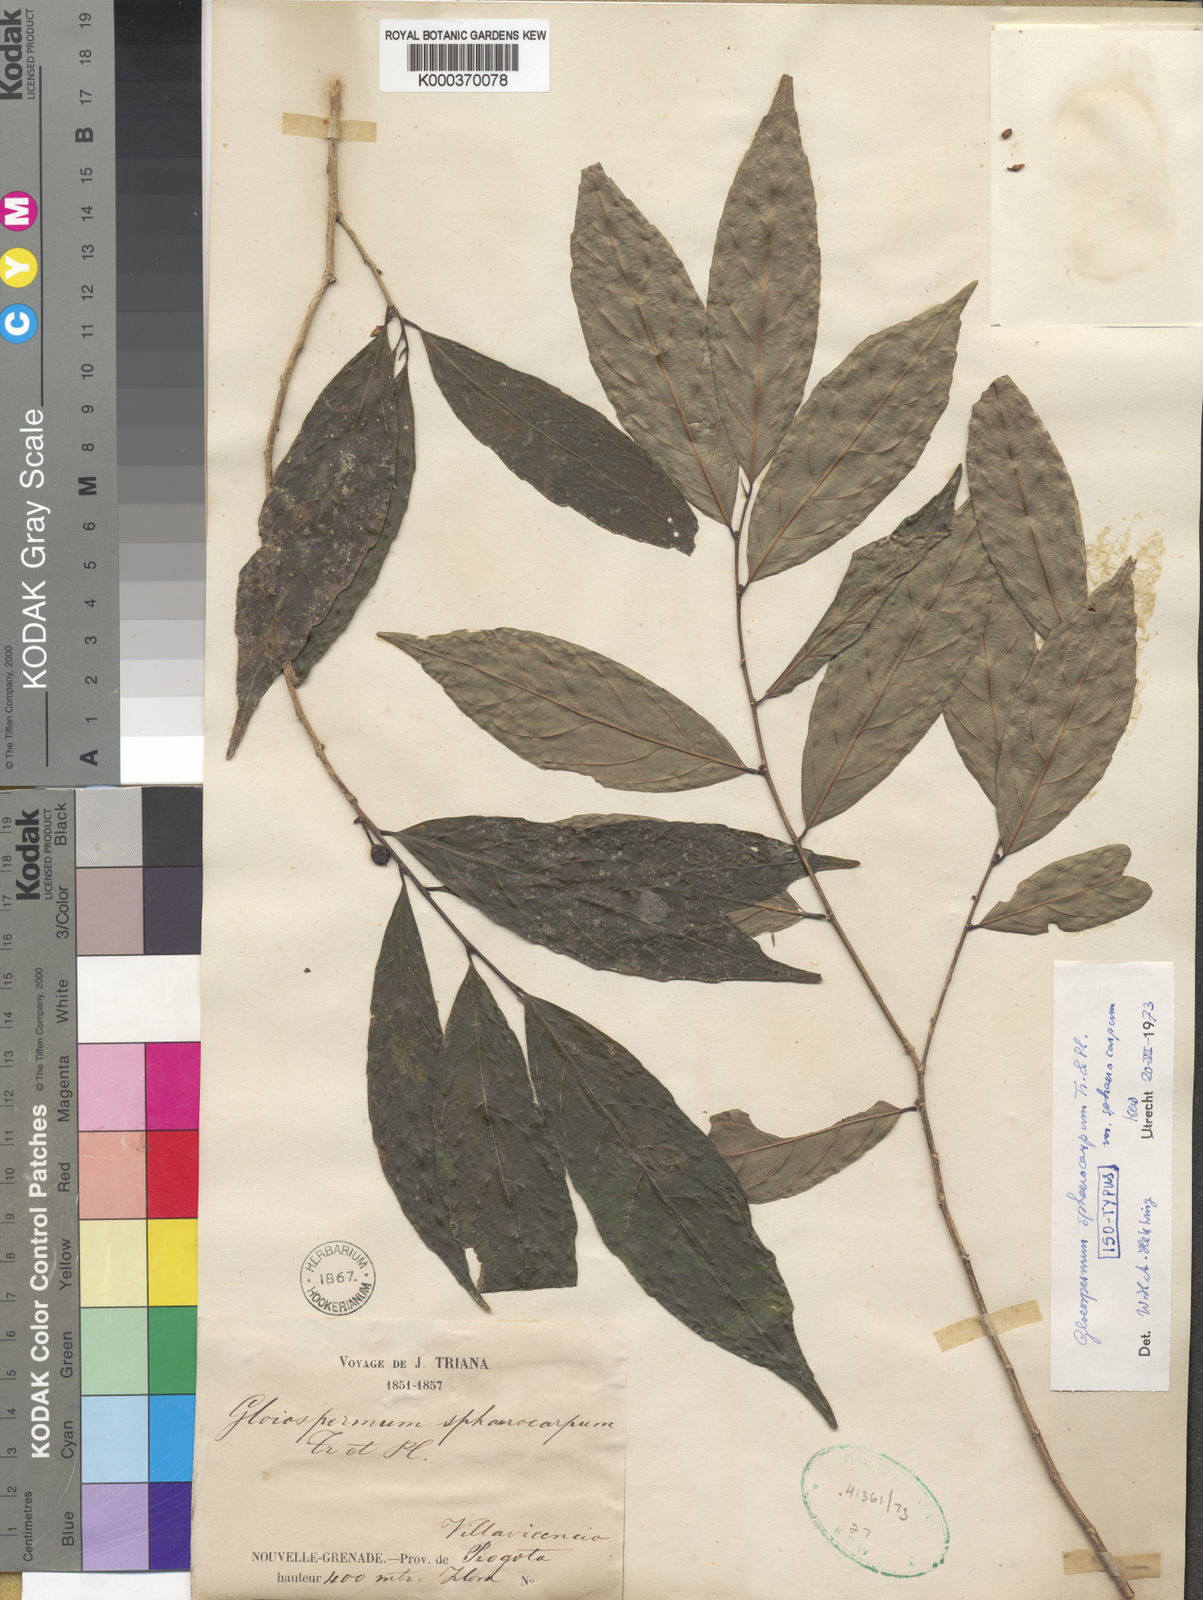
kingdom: Plantae
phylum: Tracheophyta
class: Magnoliopsida
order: Malpighiales
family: Violaceae
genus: Gloeospermum
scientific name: Gloeospermum sphaerocarpum
